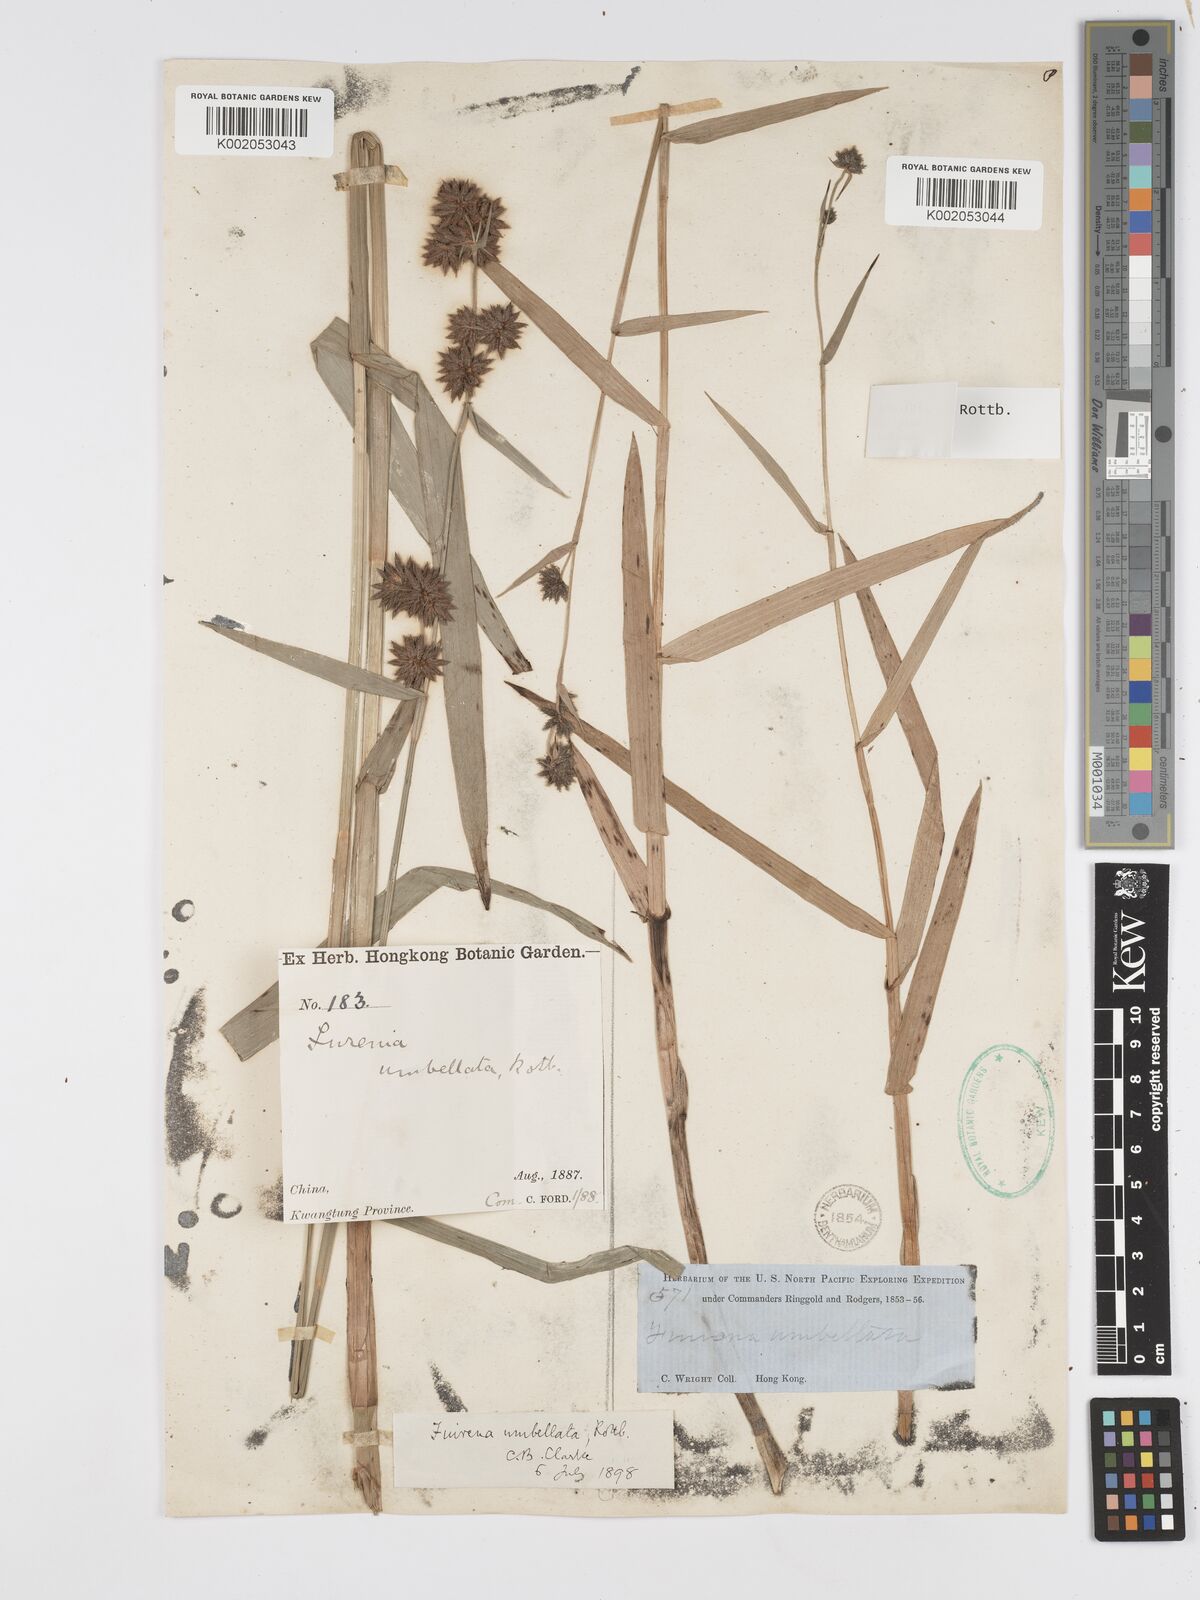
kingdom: Plantae
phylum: Tracheophyta
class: Liliopsida
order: Poales
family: Cyperaceae
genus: Fuirena
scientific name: Fuirena umbellata
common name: Yefen
